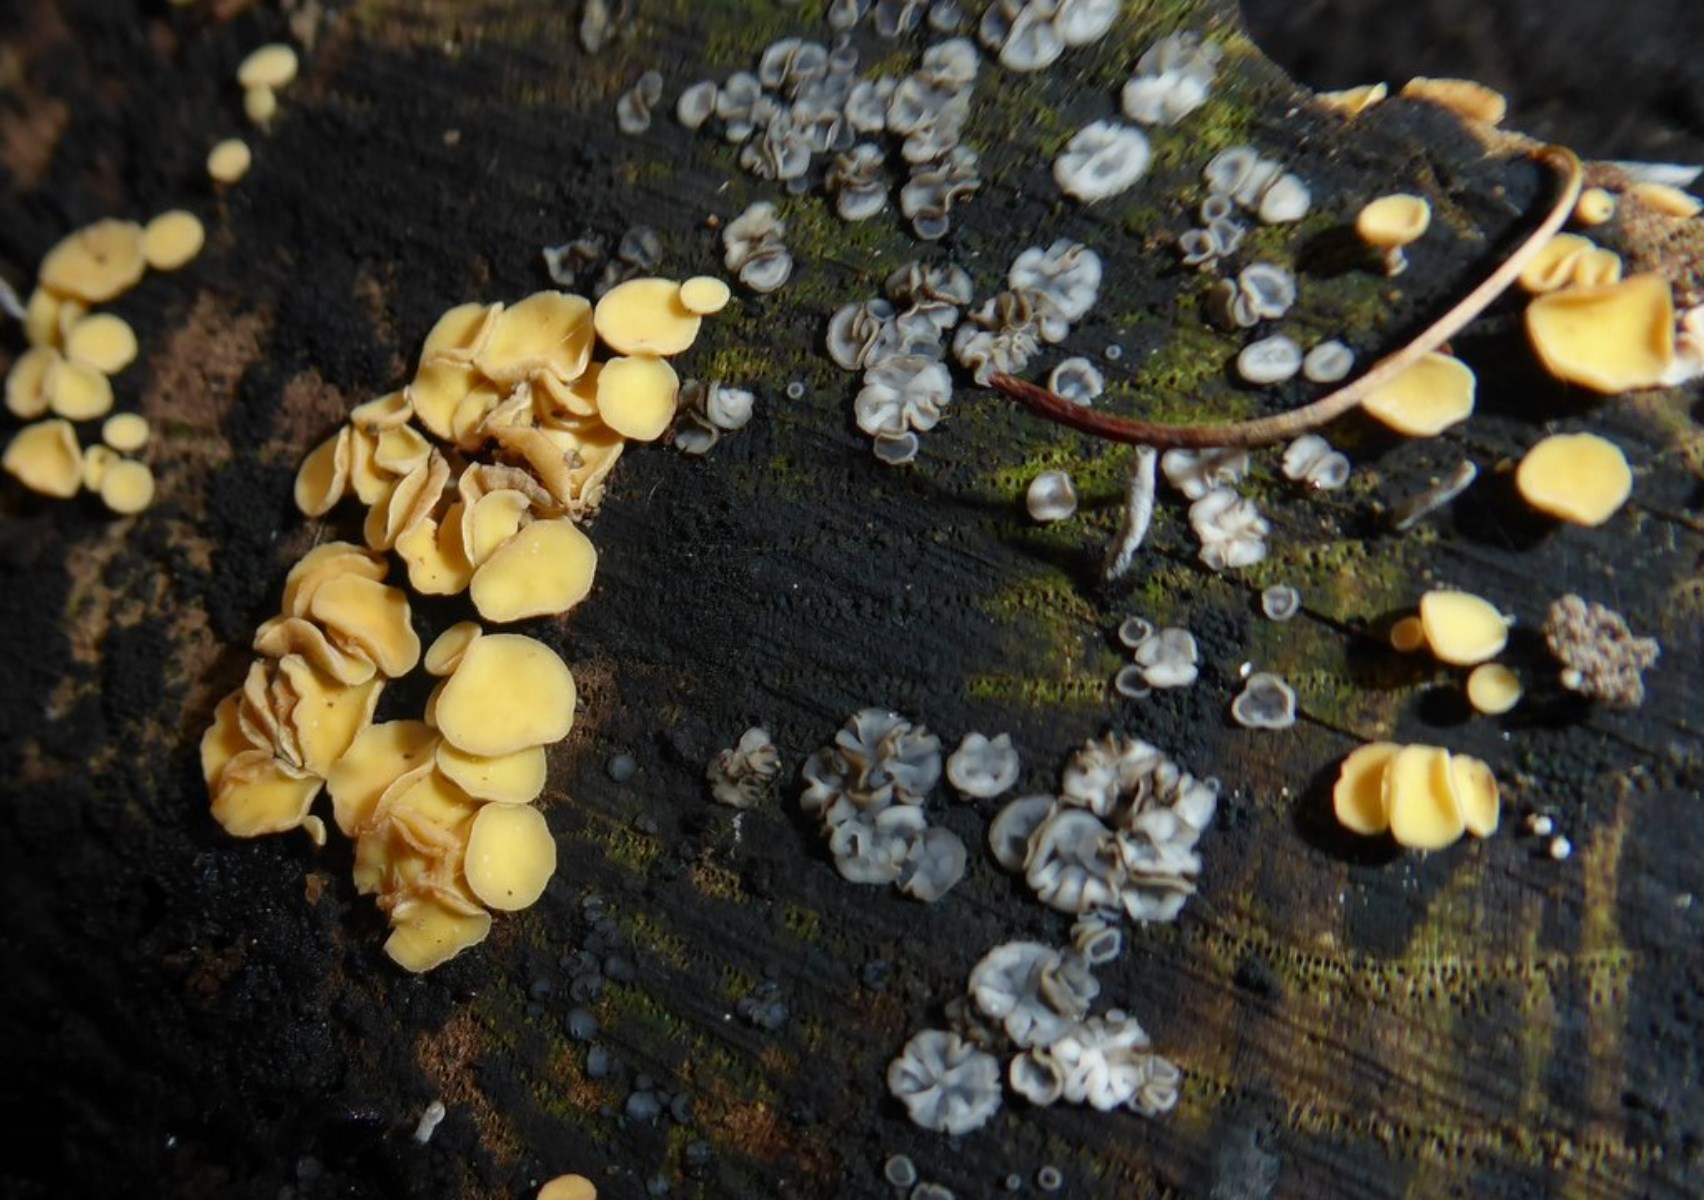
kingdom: Fungi
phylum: Ascomycota
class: Leotiomycetes
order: Helotiales
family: Helotiaceae
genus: Hymenoscyphus
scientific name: Hymenoscyphus
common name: stilkskive
